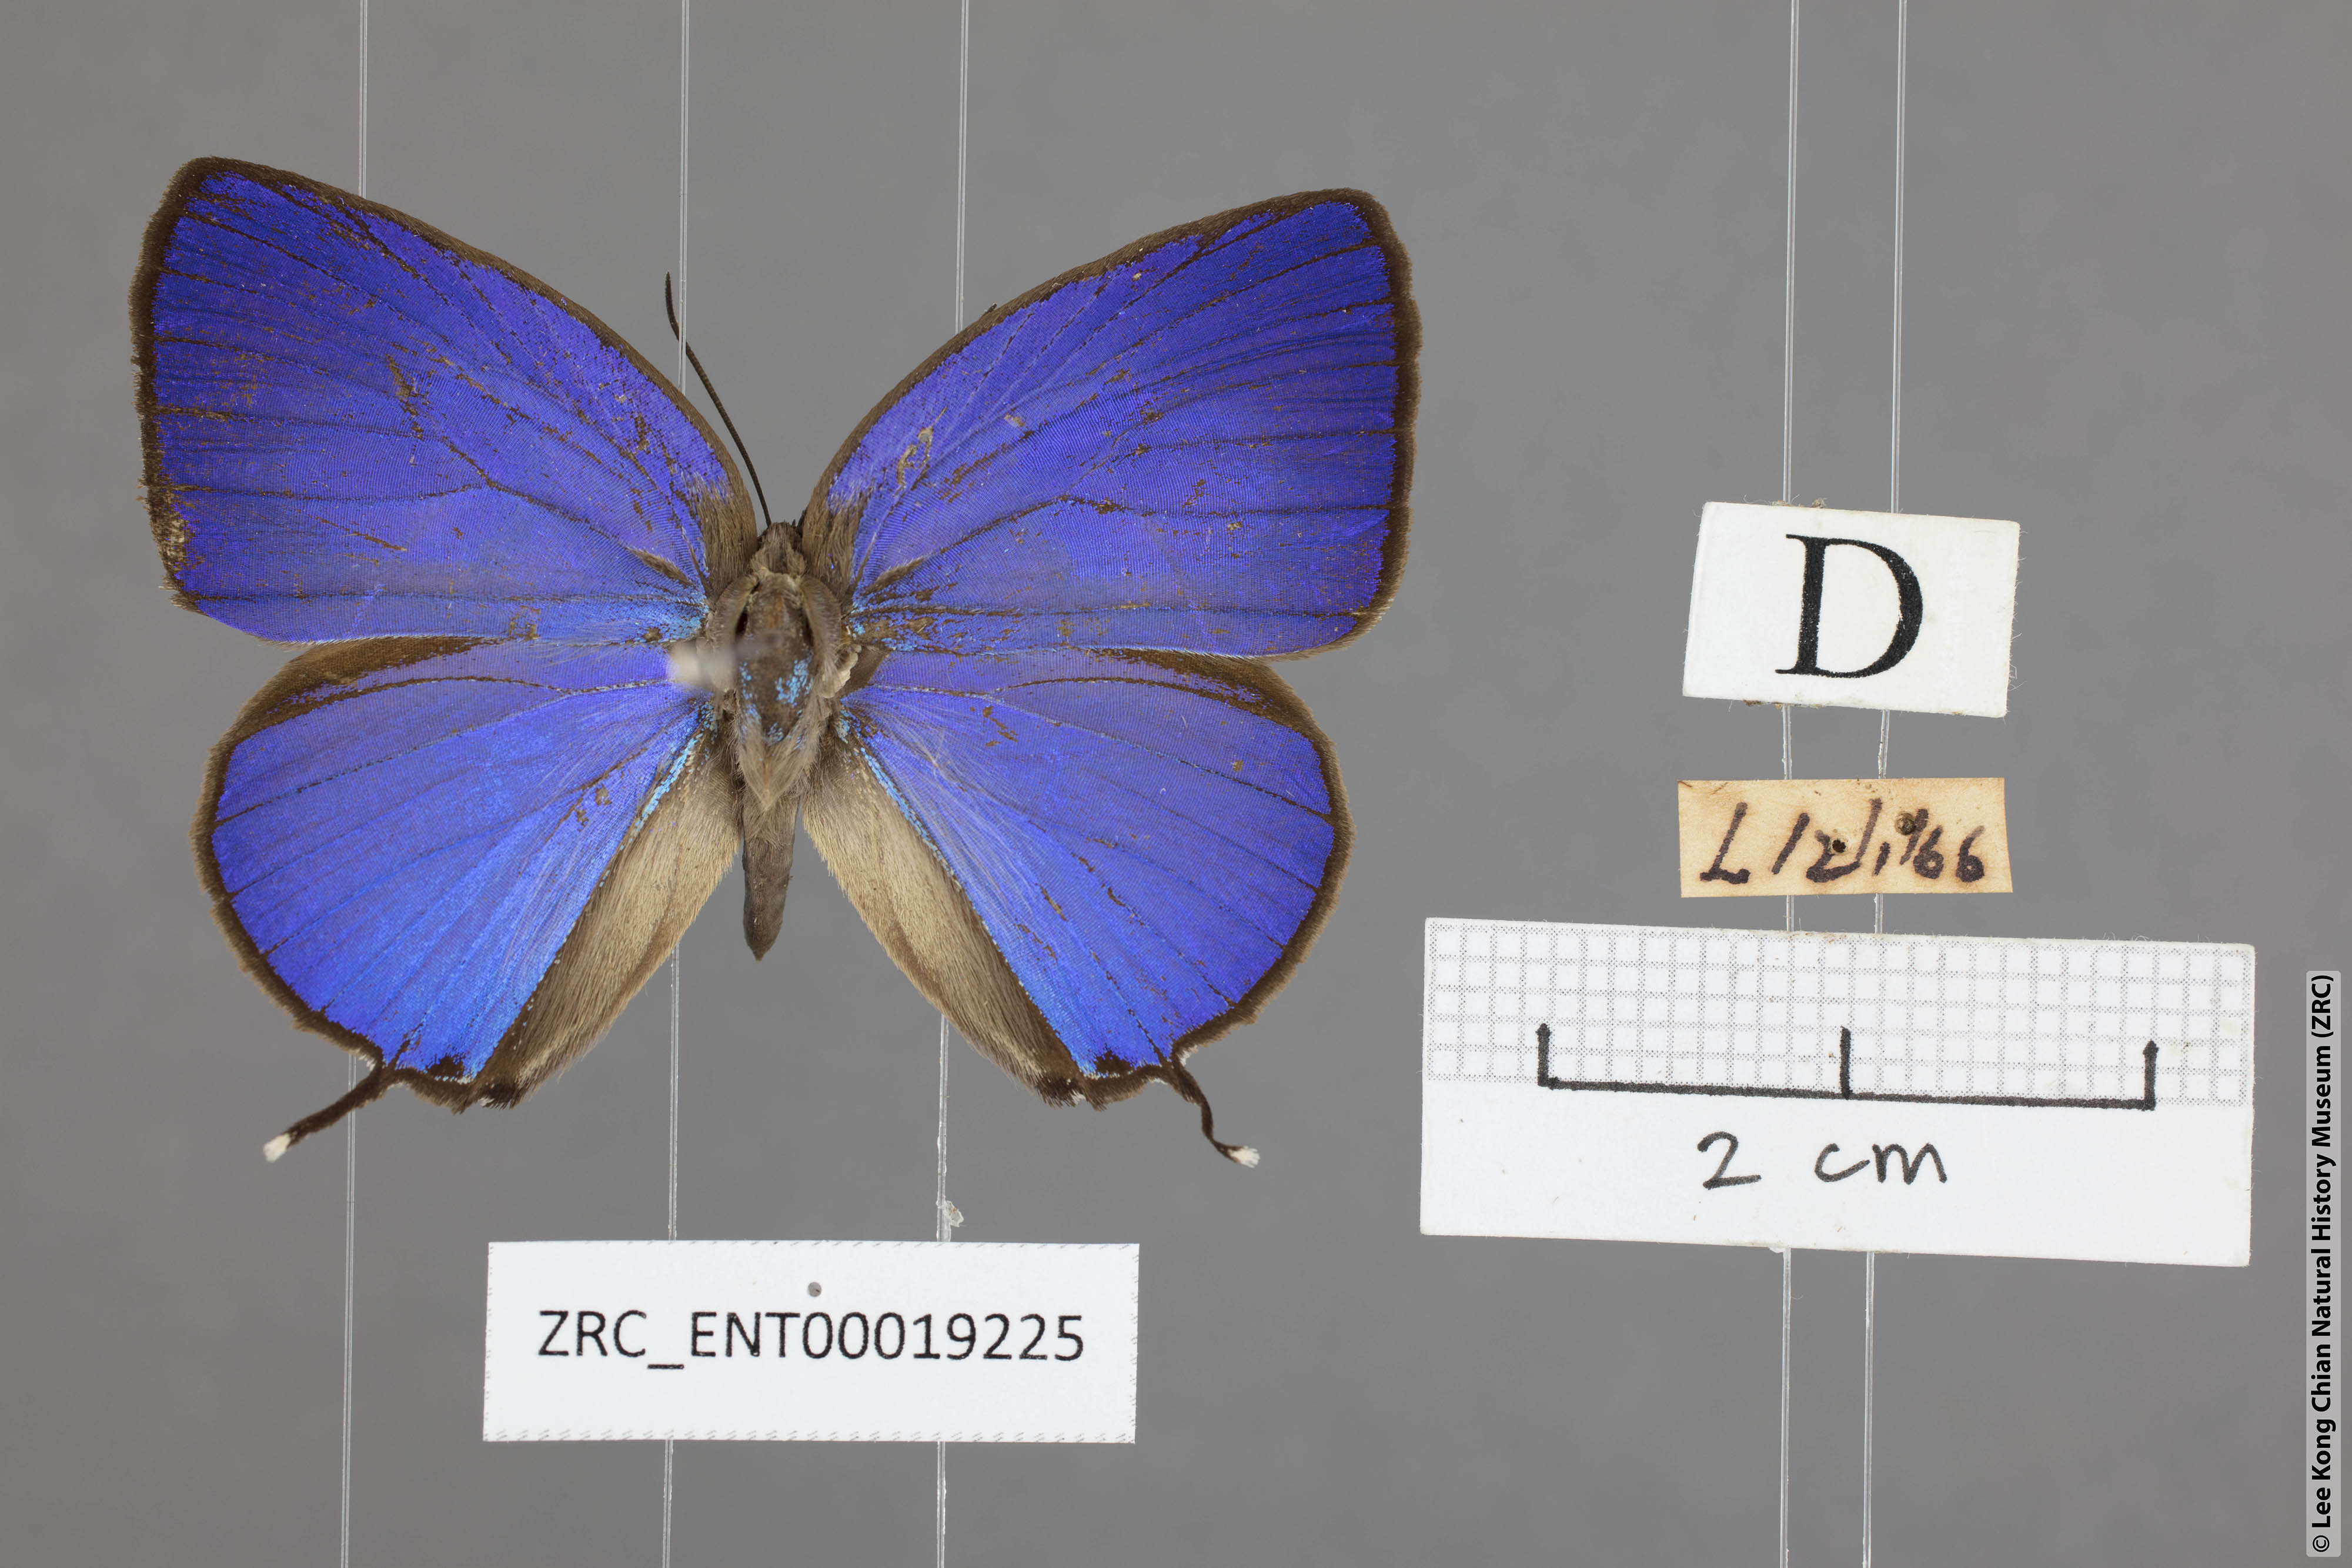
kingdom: Animalia
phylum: Arthropoda
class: Insecta
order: Lepidoptera
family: Lycaenidae
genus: Arhopala
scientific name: Arhopala atosia
